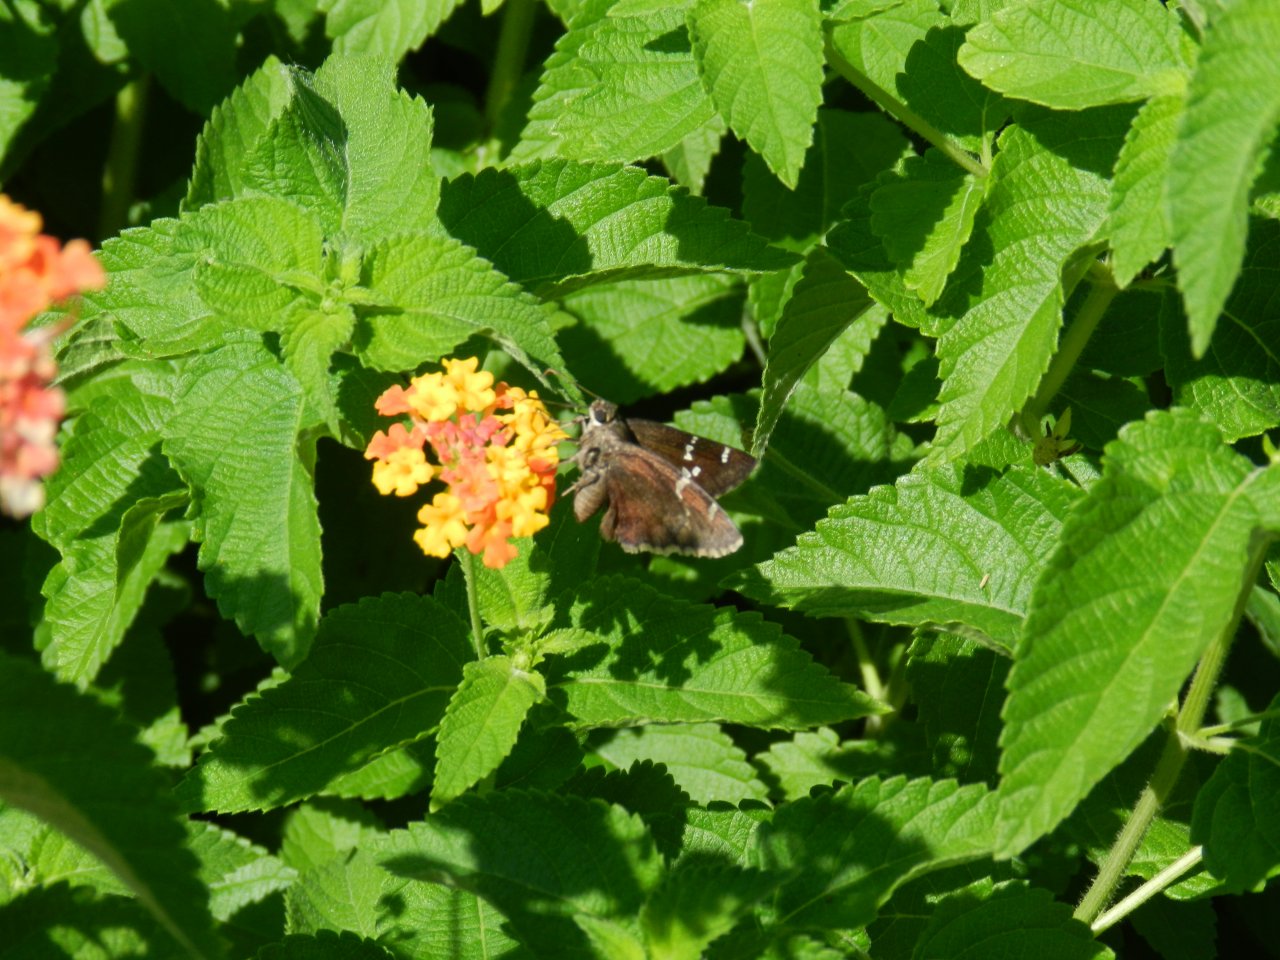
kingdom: Animalia
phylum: Arthropoda
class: Insecta
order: Lepidoptera
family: Hesperiidae
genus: Autochton
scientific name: Autochton
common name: Southern Cloudywing
